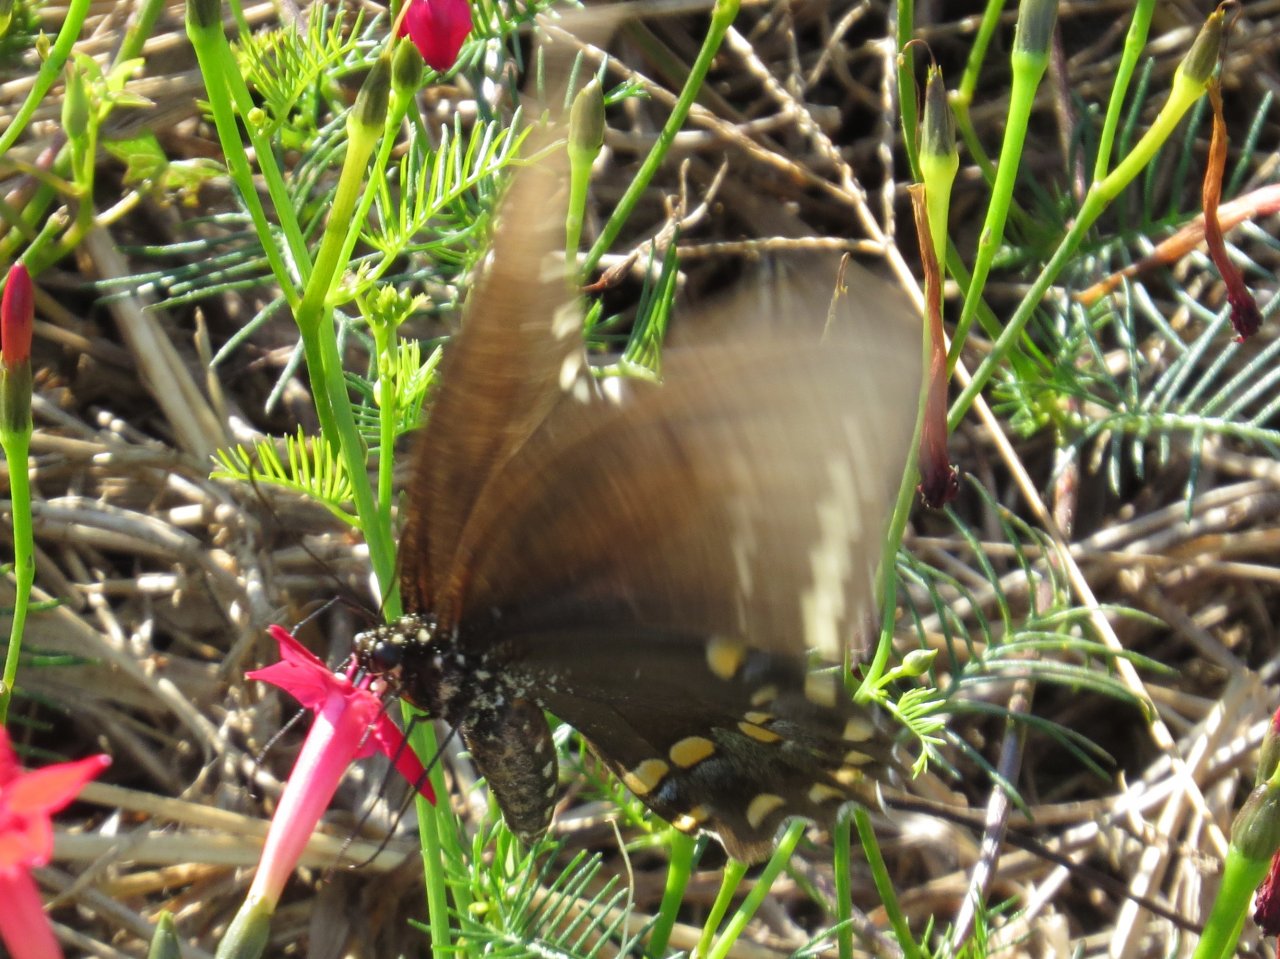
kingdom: Animalia
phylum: Arthropoda
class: Insecta
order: Lepidoptera
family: Papilionidae
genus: Pterourus
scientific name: Pterourus troilus
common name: Spicebush Swallowtail
